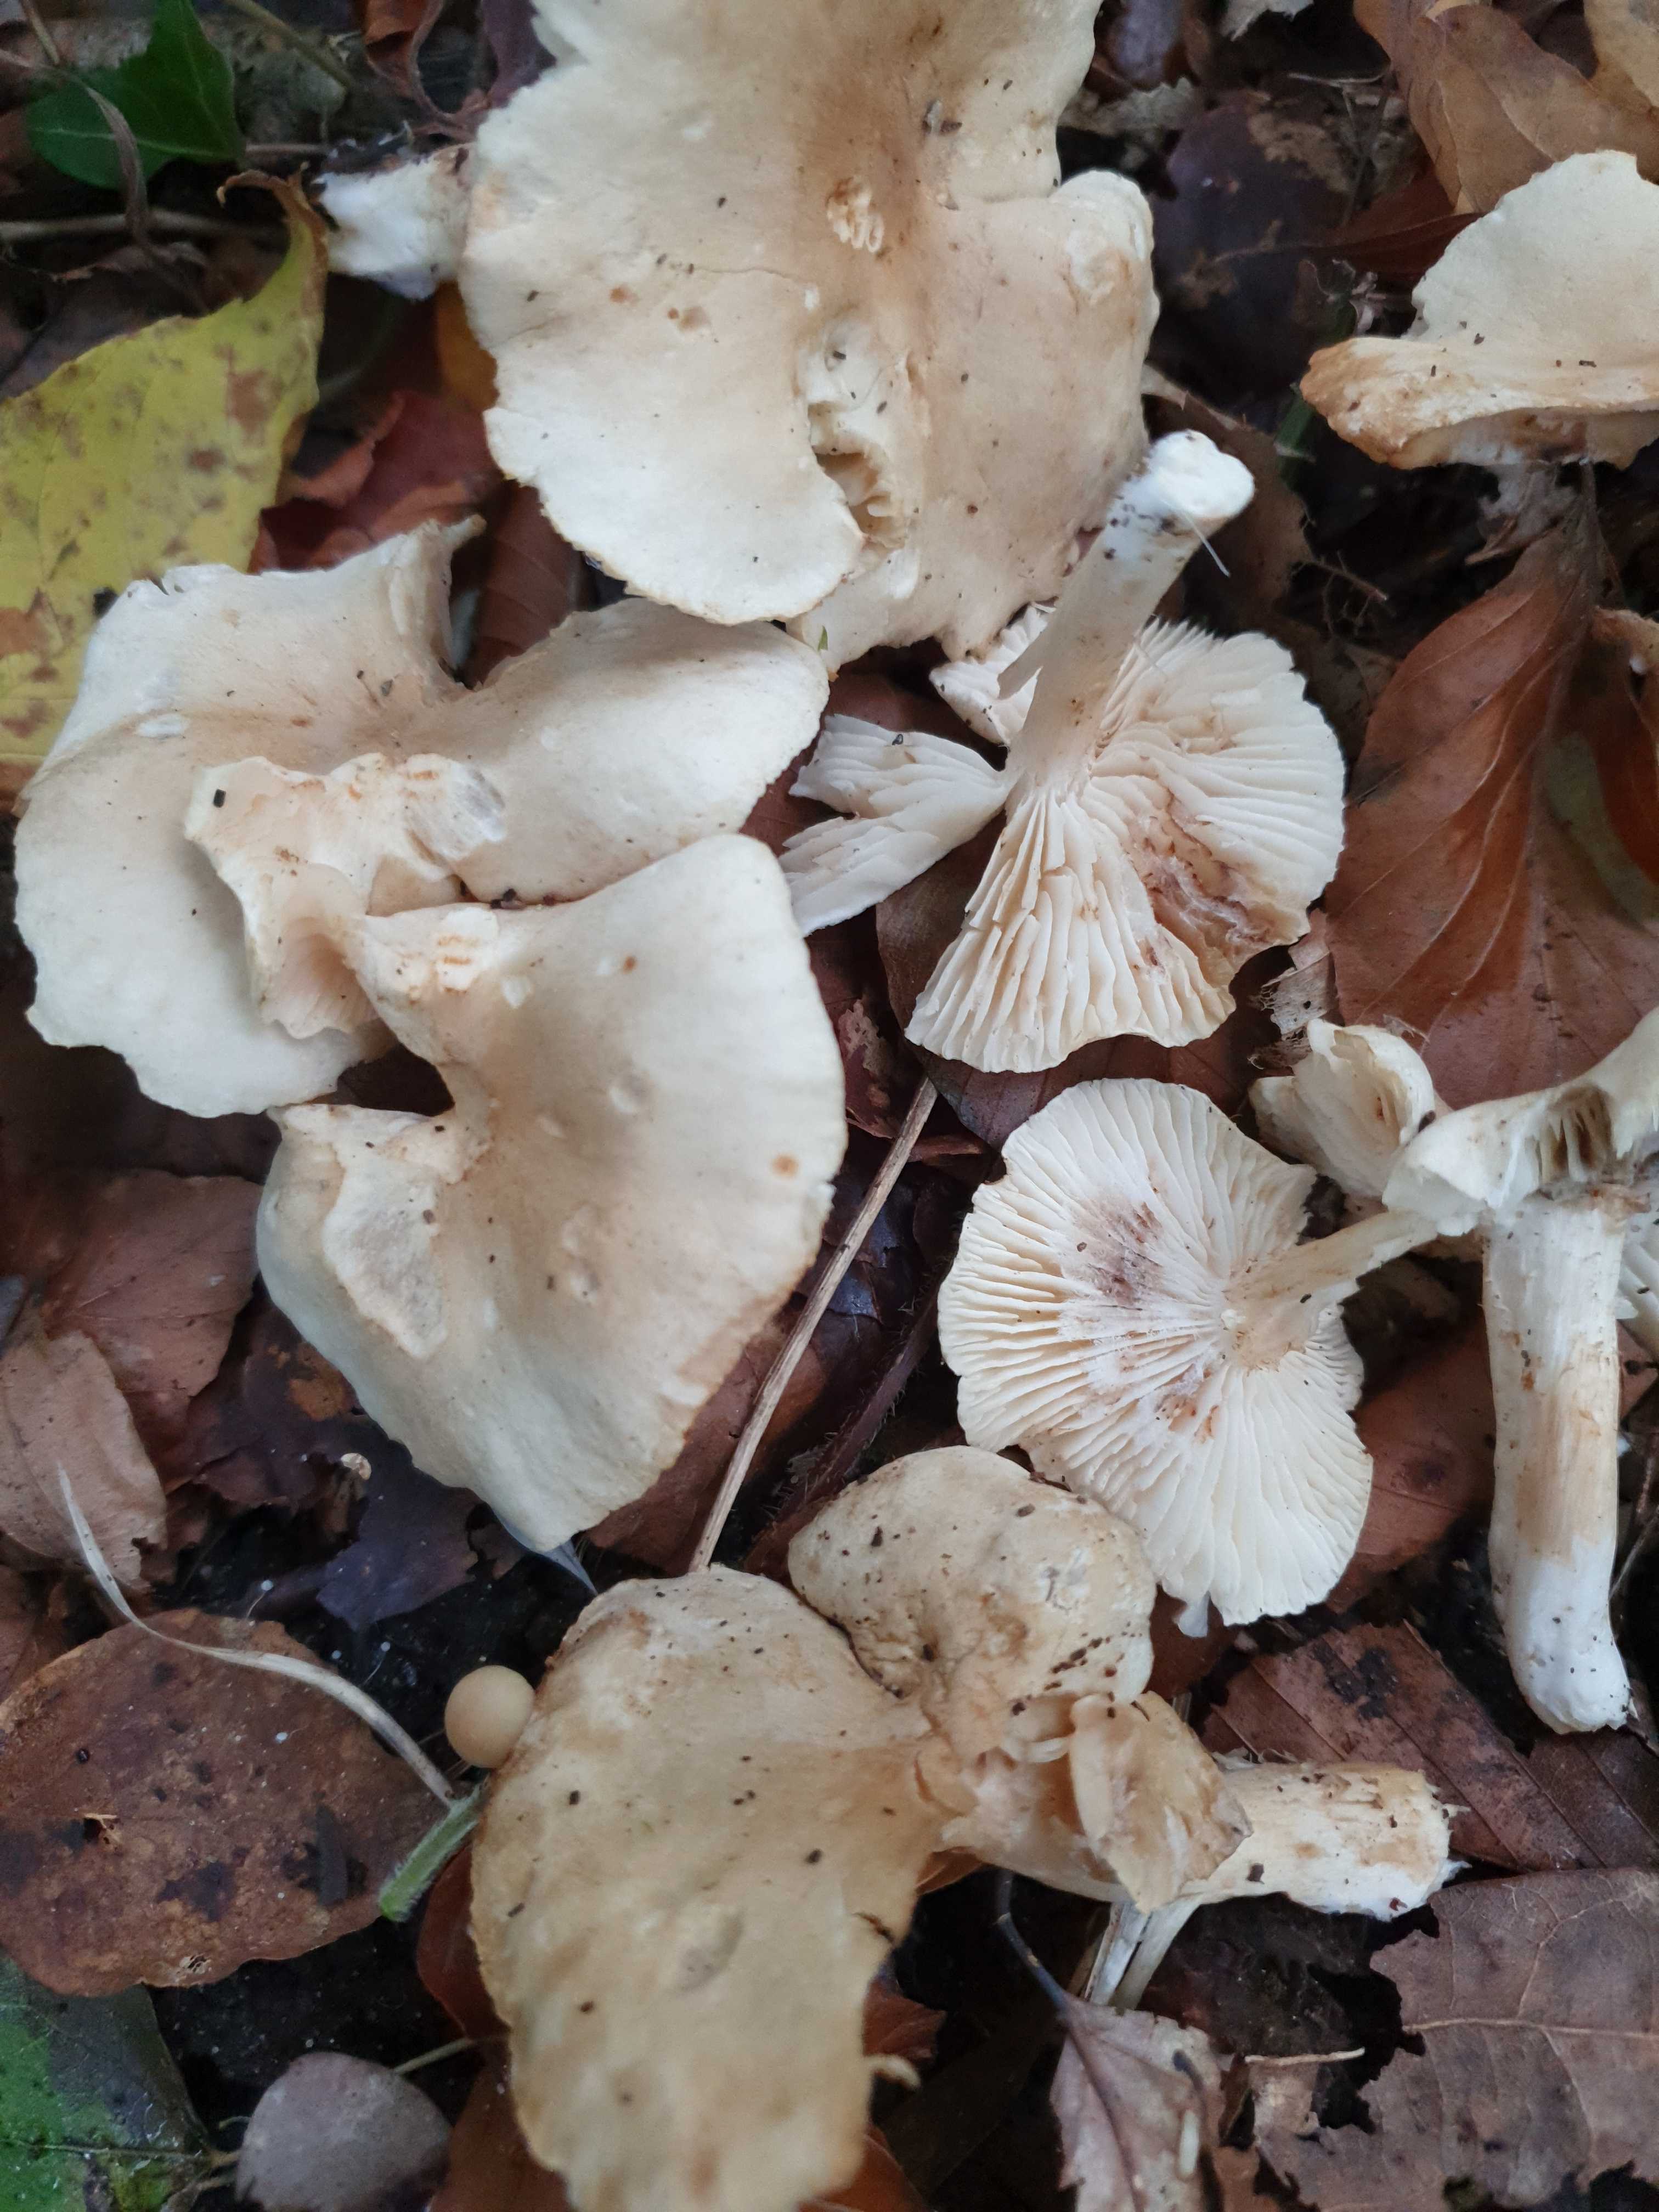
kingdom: Fungi
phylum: Basidiomycota
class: Agaricomycetes
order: Agaricales
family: Tricholomataceae
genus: Tricholoma
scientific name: Tricholoma lascivum
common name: stinkende ridderhat
